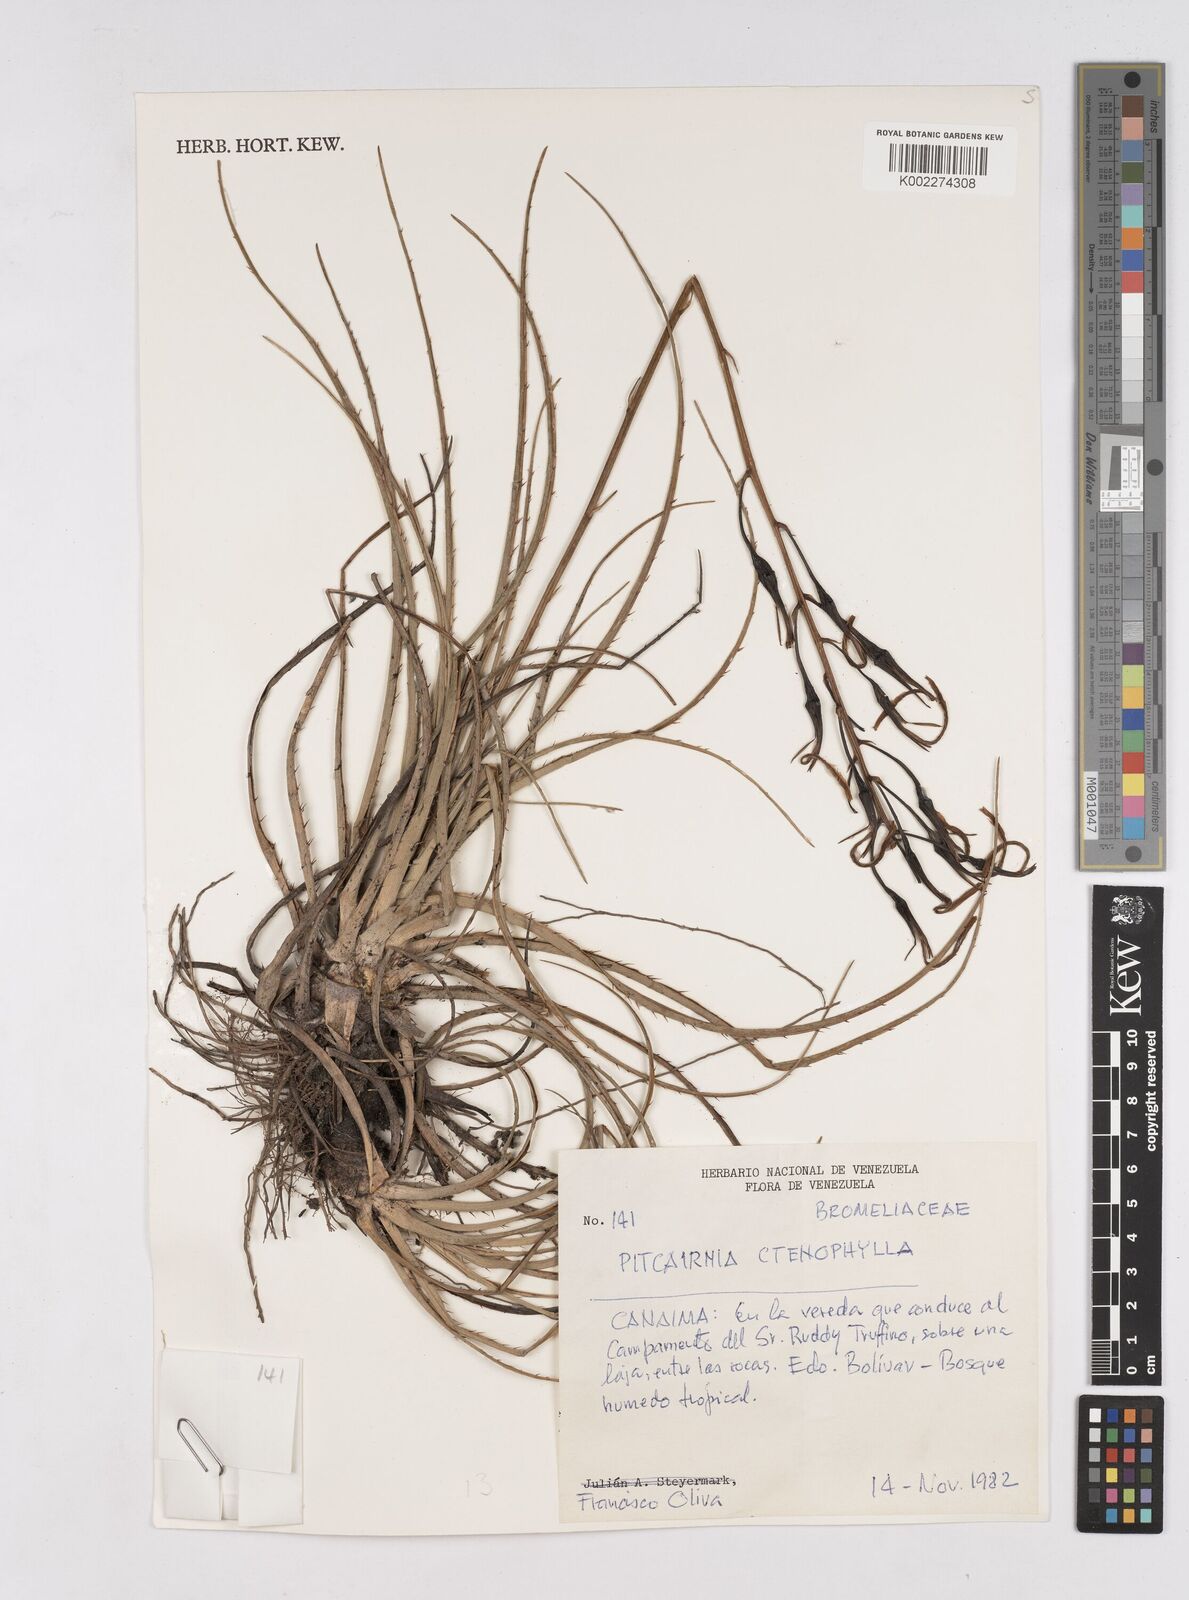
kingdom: Plantae
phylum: Tracheophyta
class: Liliopsida
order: Poales
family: Bromeliaceae
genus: Pitcairnia
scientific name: Pitcairnia ctenophylla
